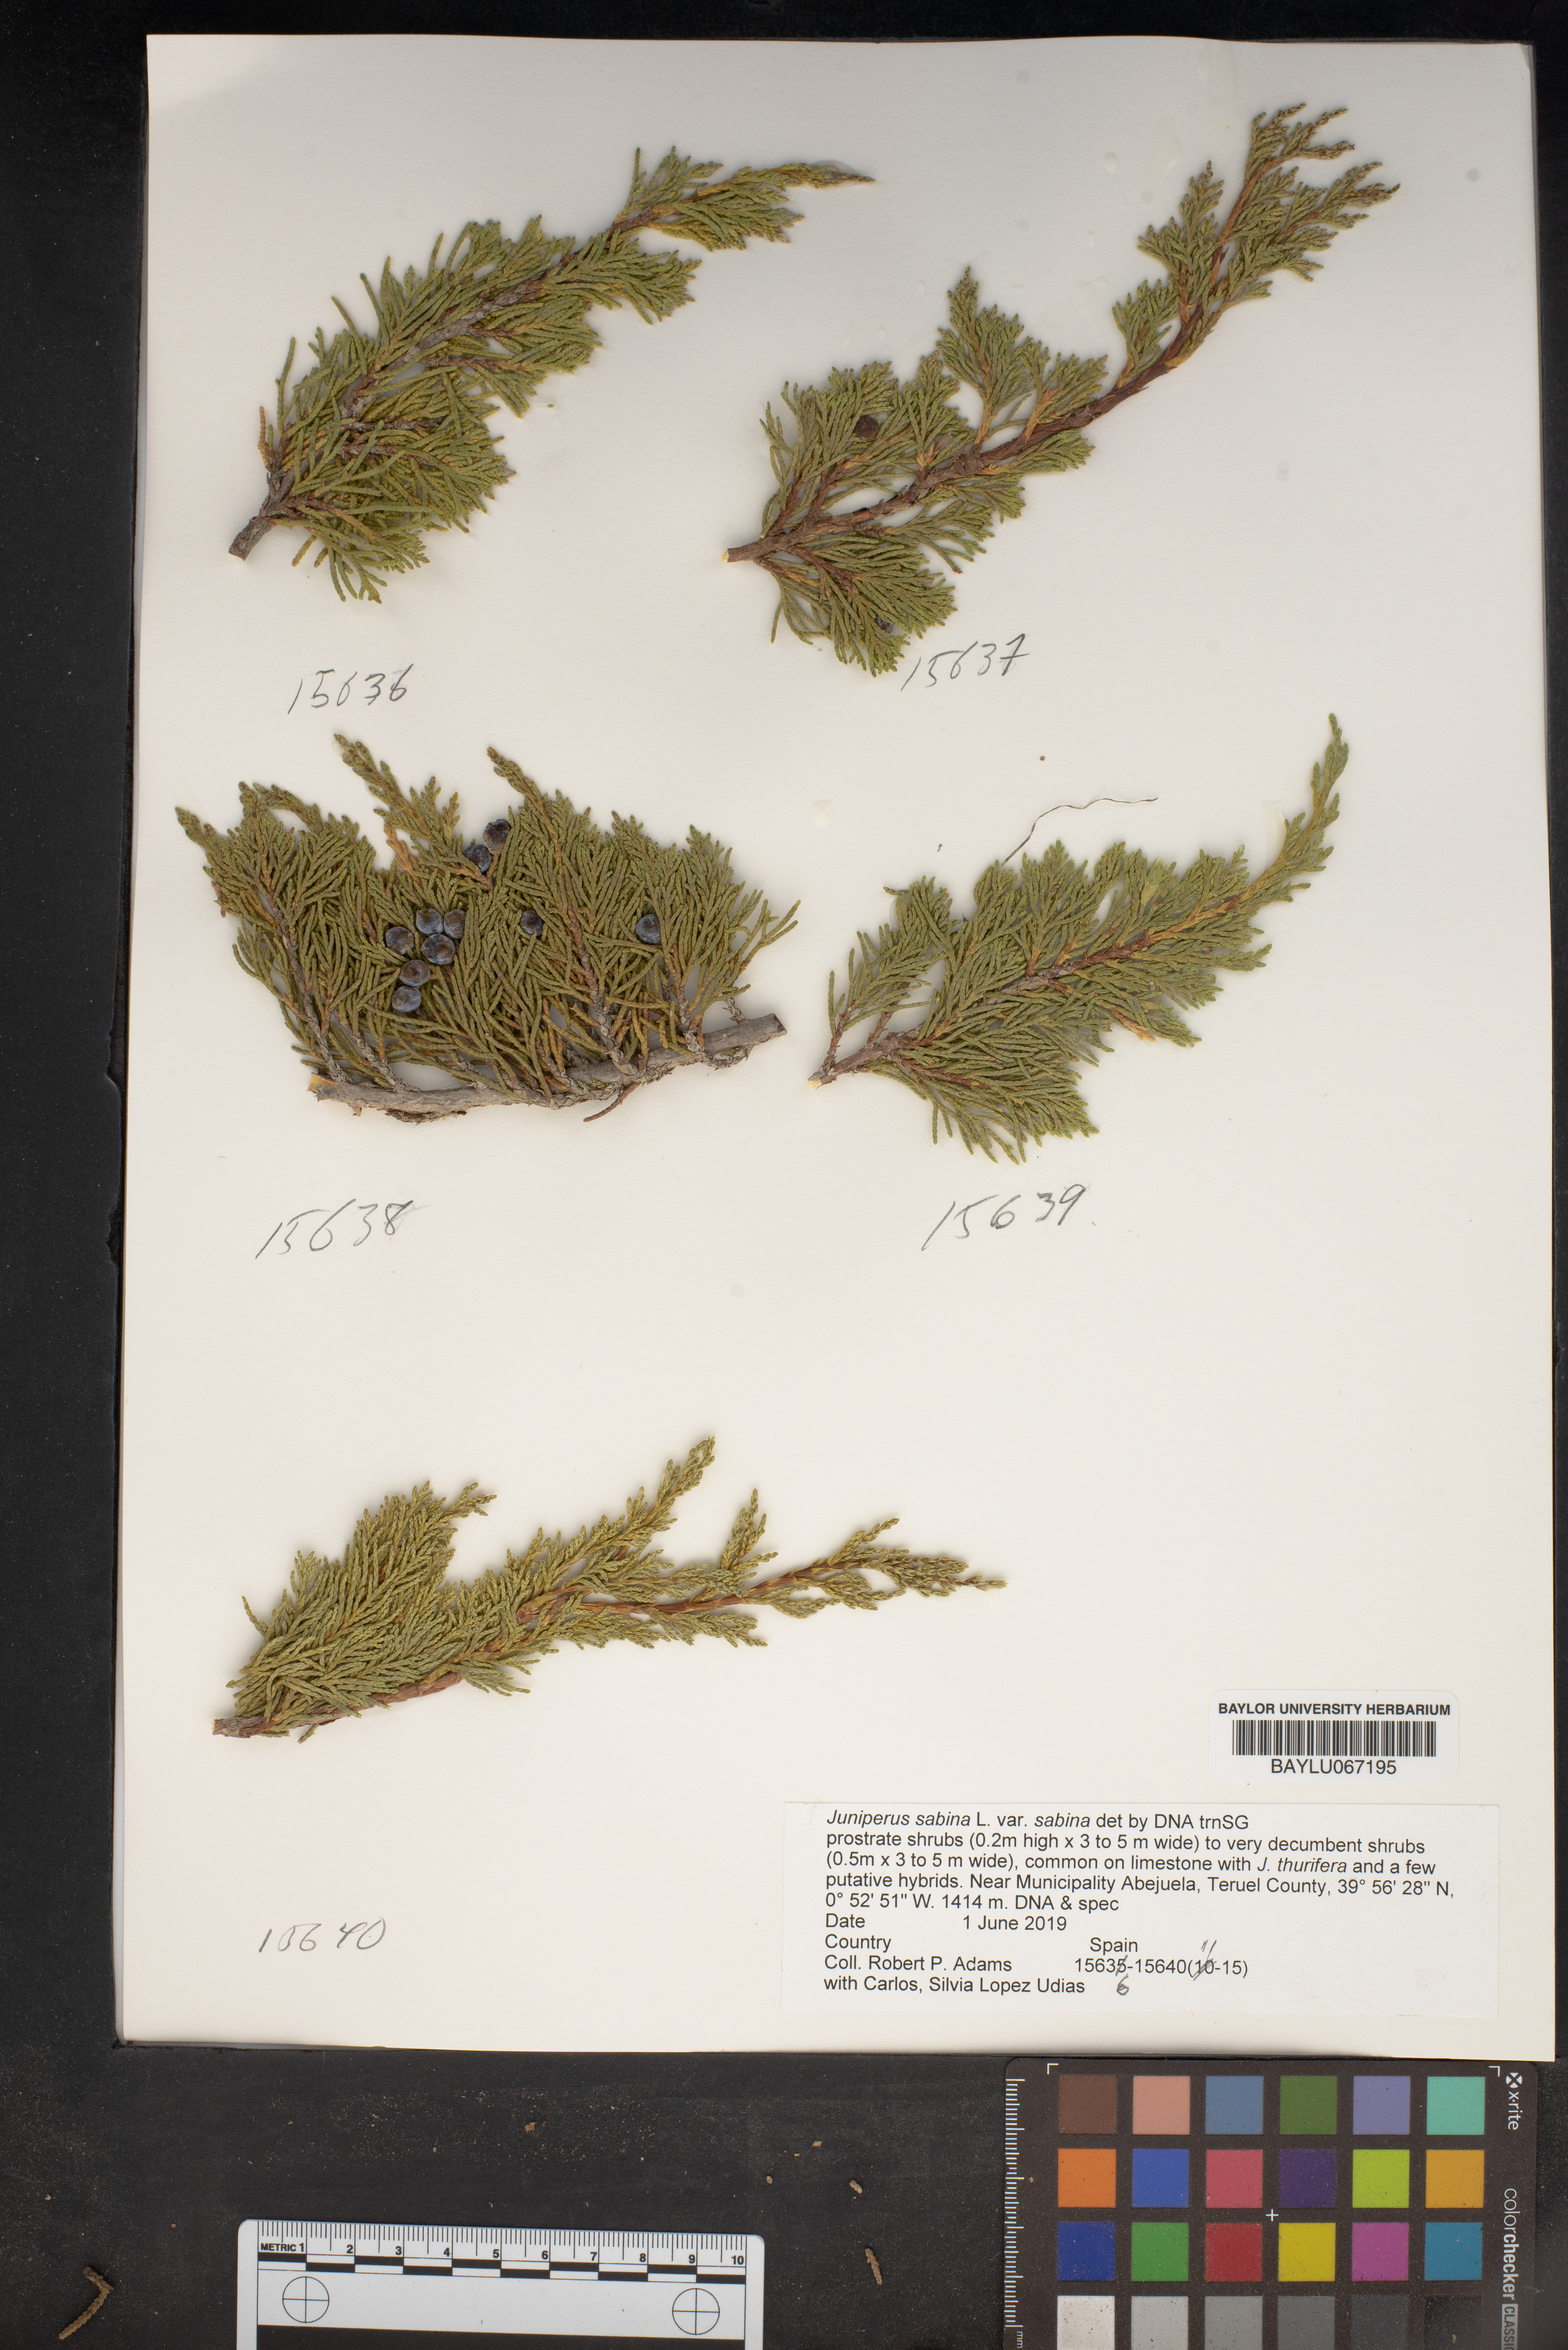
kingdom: Plantae
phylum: Tracheophyta
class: Pinopsida
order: Pinales
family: Cupressaceae
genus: Juniperus
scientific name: Juniperus sabina
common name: Savin
